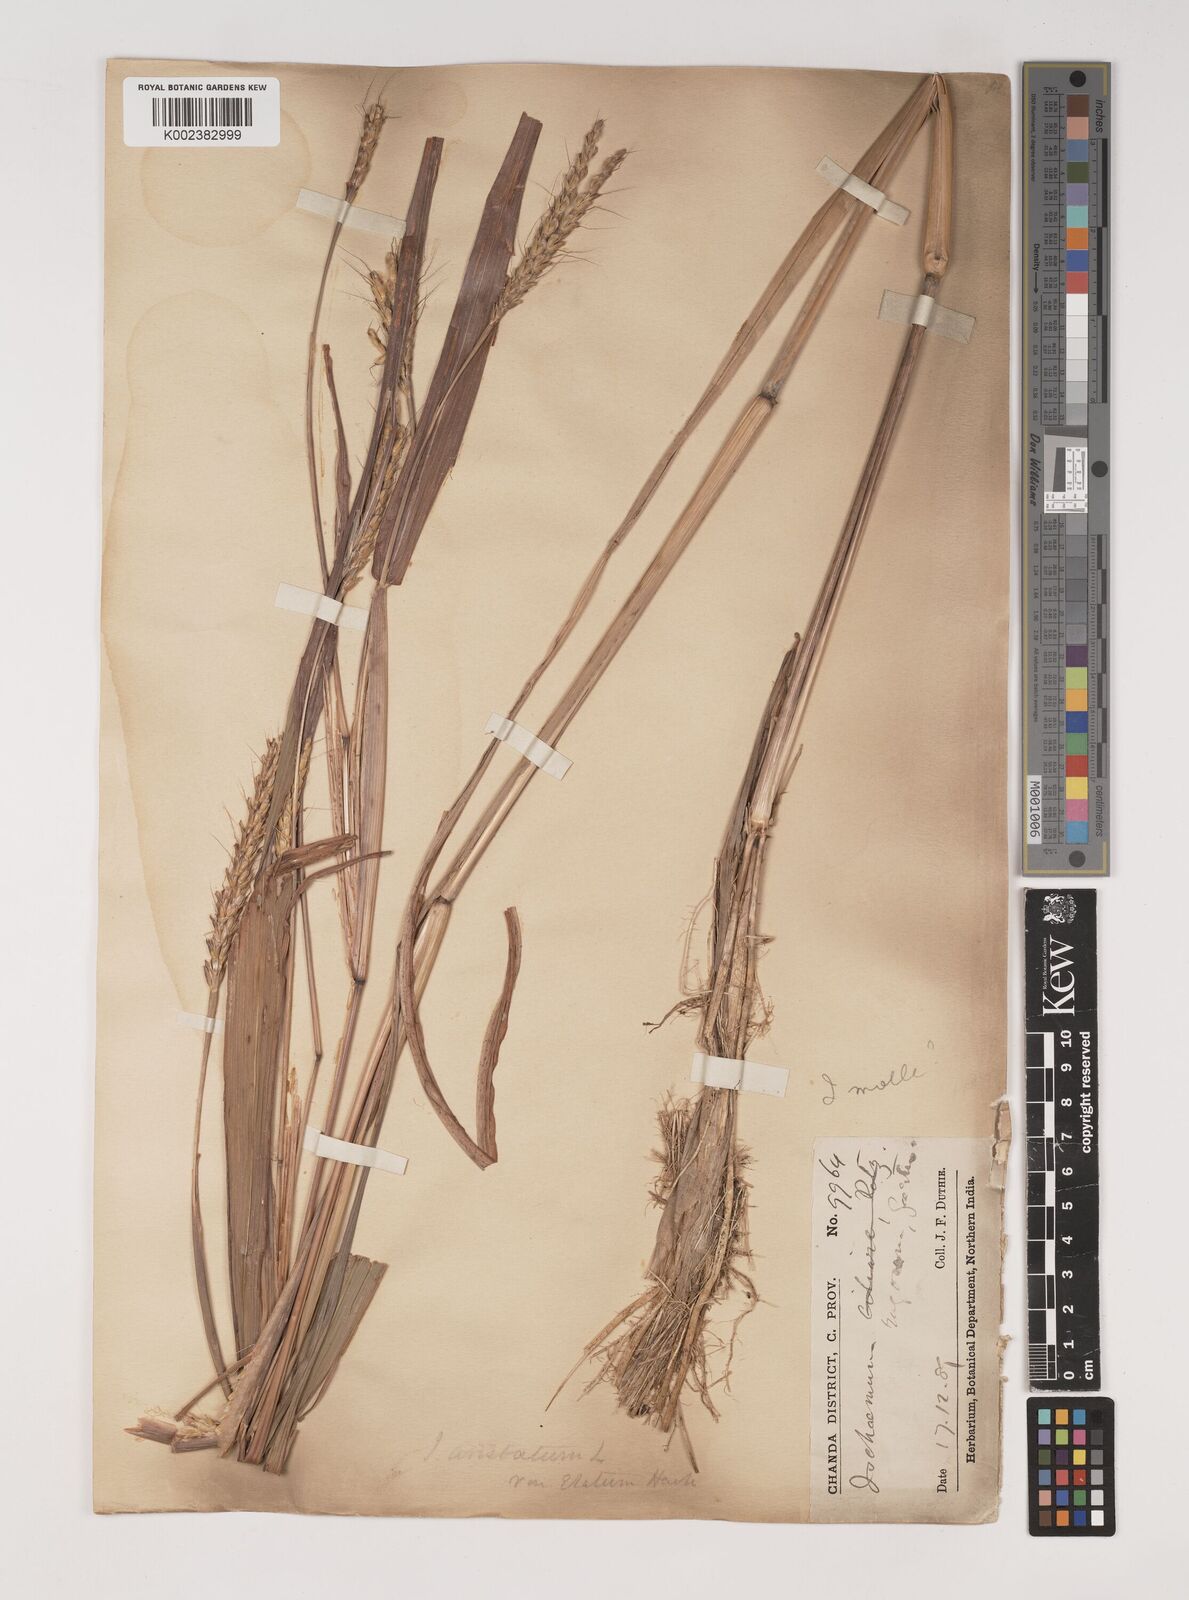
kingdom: Plantae
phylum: Tracheophyta
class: Liliopsida
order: Poales
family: Poaceae
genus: Ischaemum
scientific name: Ischaemum rugosum
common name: Saramatta grass
